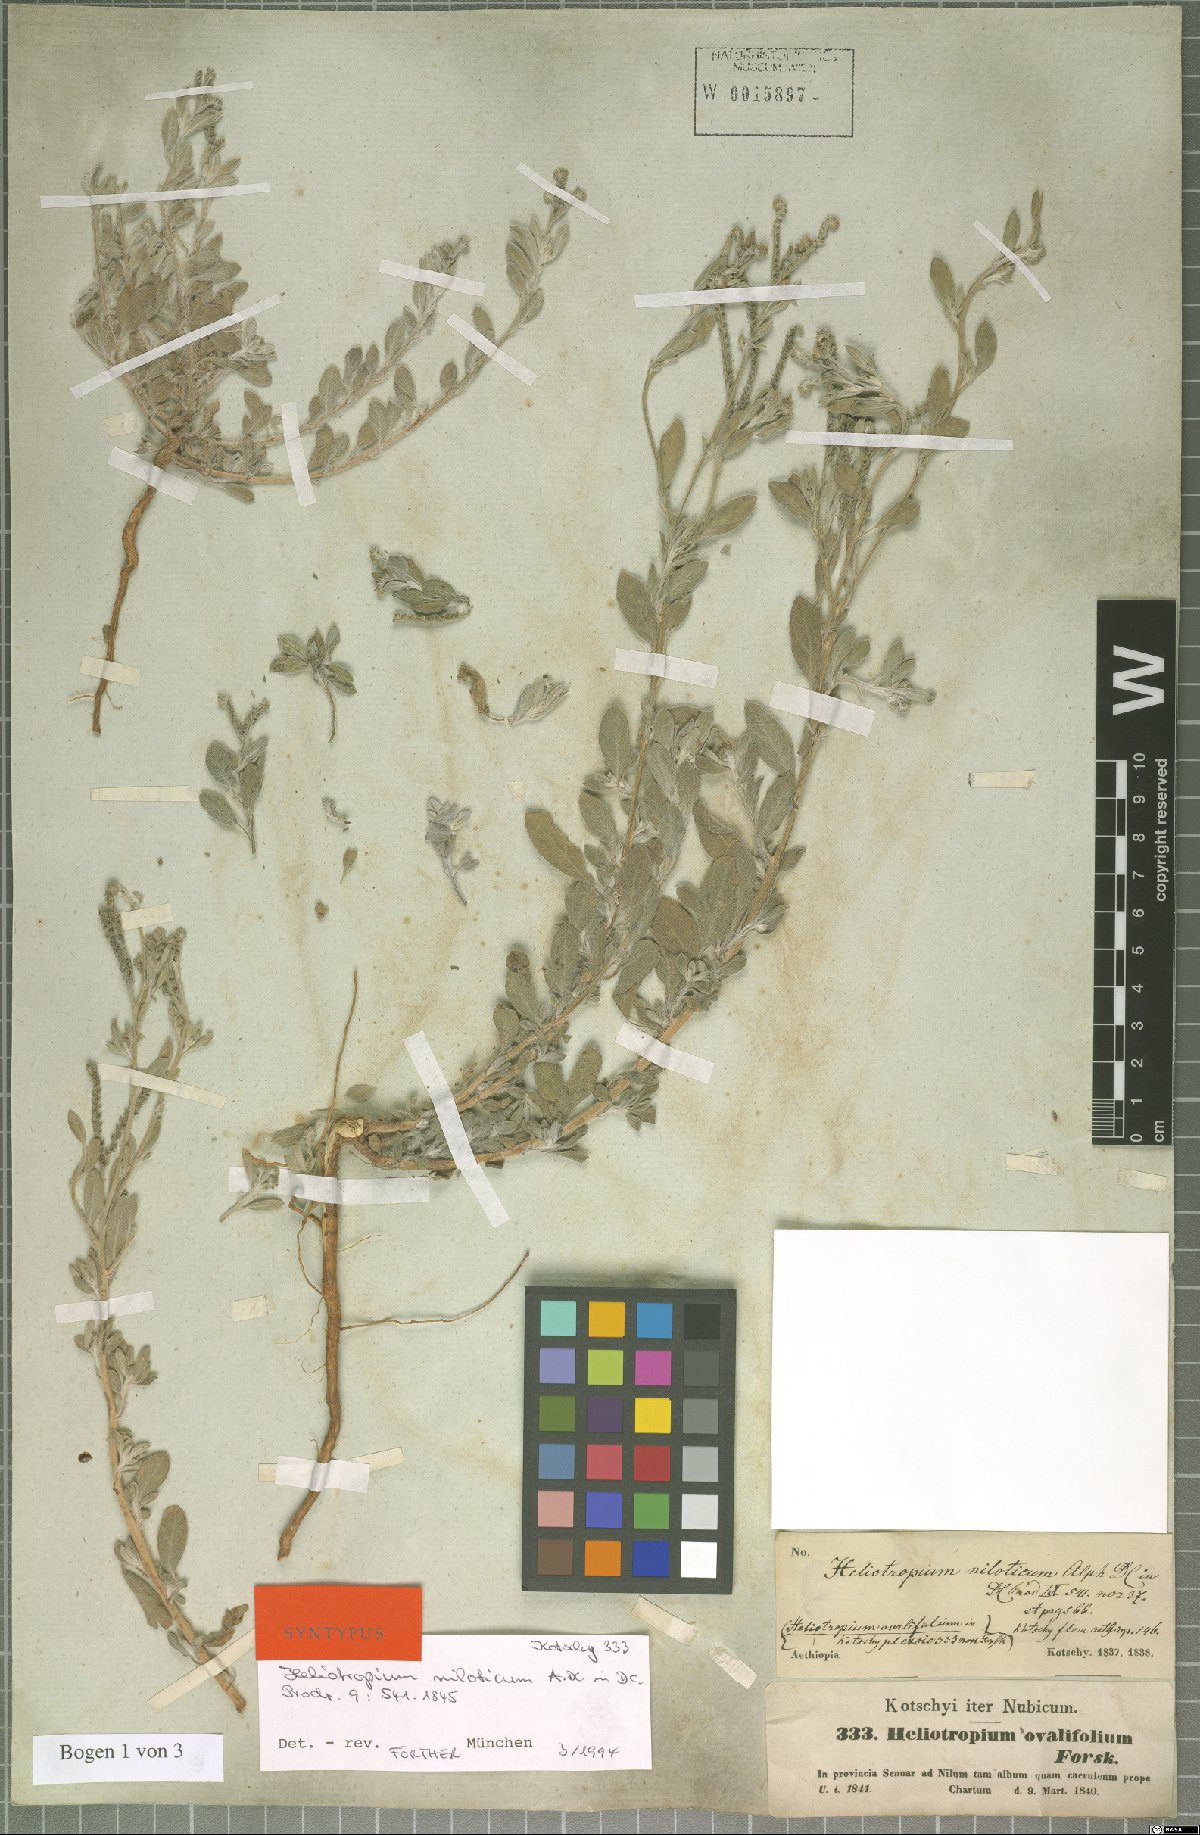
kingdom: Plantae
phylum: Tracheophyta
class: Magnoliopsida
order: Boraginales
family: Heliotropiaceae
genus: Euploca
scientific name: Euploca ovalifolia
